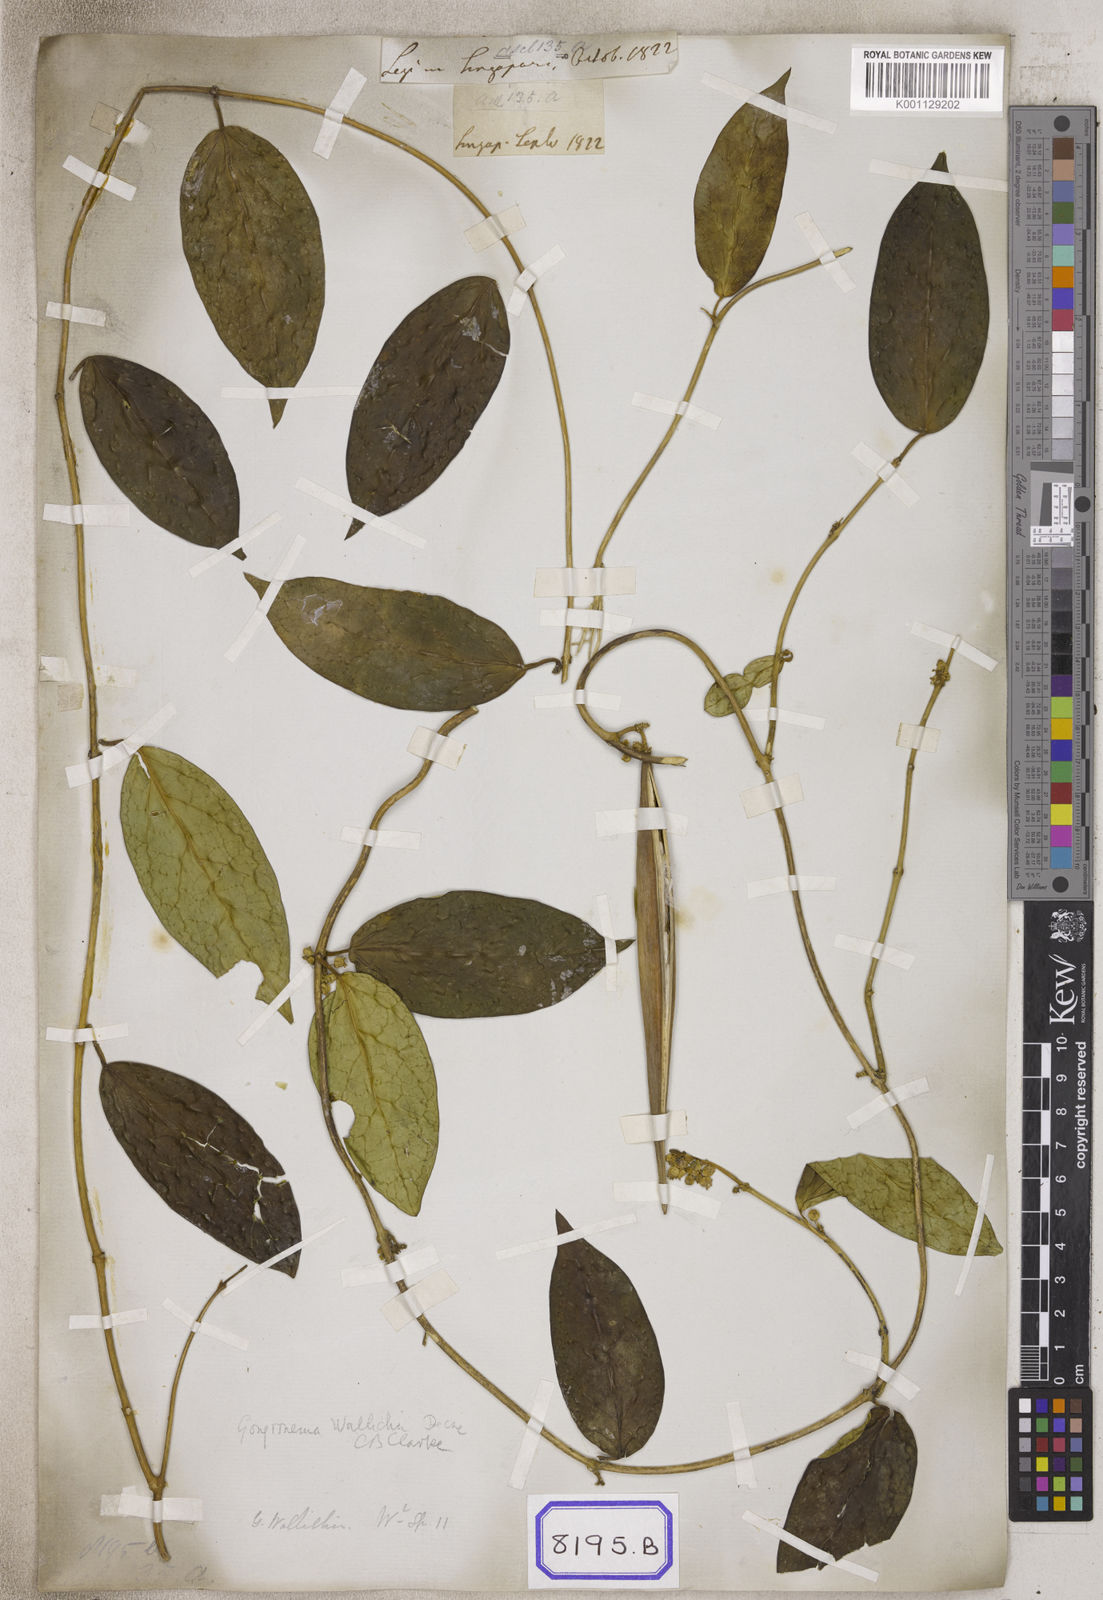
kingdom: Plantae
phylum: Tracheophyta
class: Magnoliopsida
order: Gentianales
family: Apocynaceae
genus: Vincetoxicum
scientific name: Vincetoxicum ventricosum
